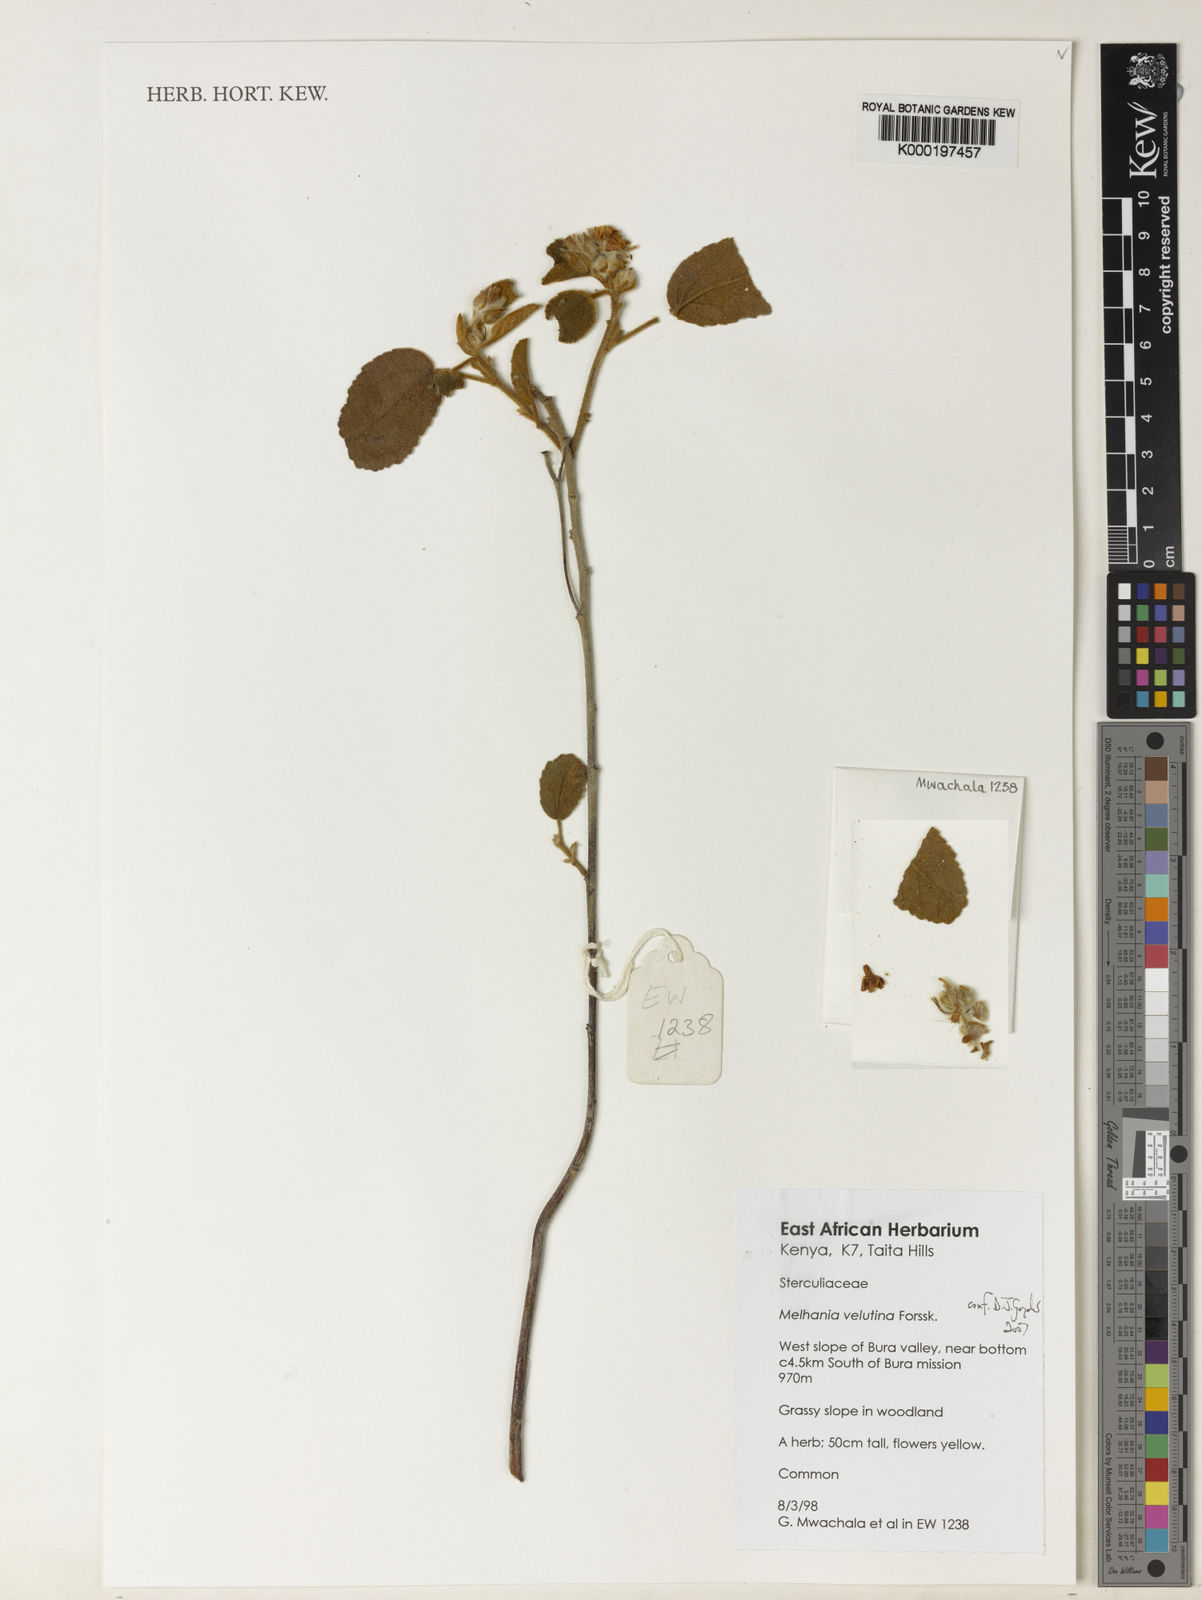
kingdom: Plantae
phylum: Tracheophyta
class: Magnoliopsida
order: Malvales
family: Malvaceae
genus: Melhania
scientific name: Melhania velutina
